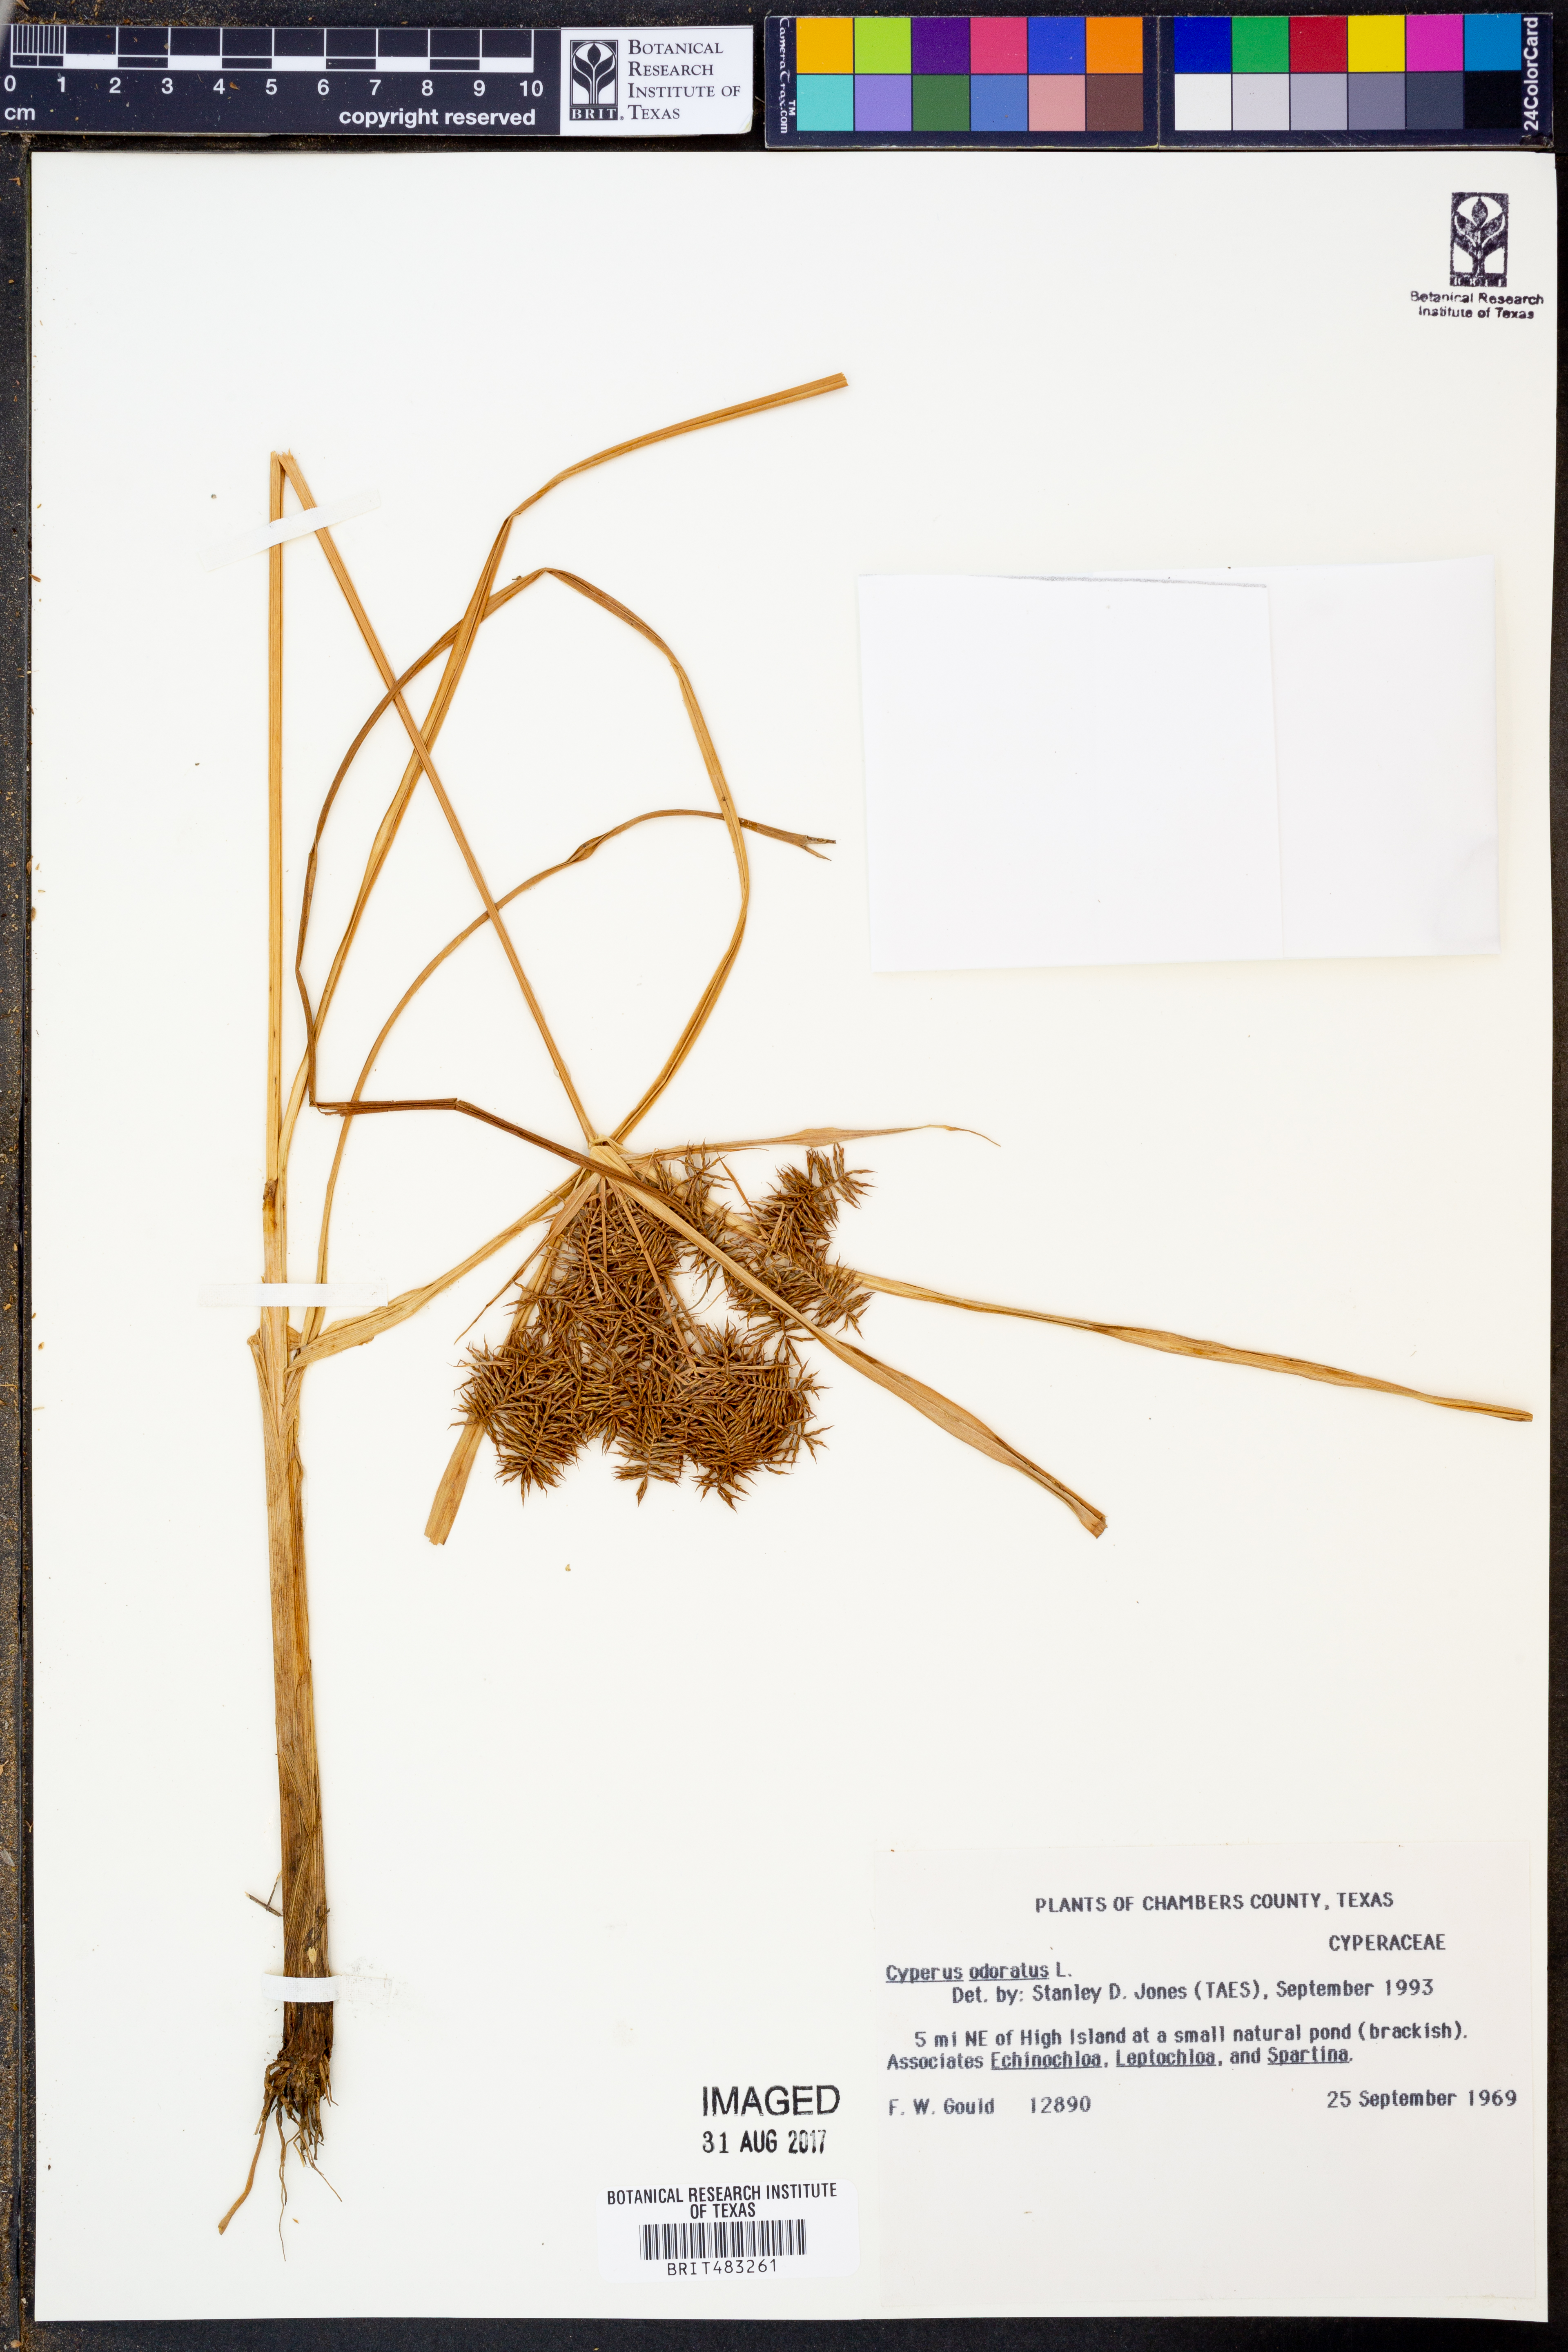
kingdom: Plantae
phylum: Tracheophyta
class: Liliopsida
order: Poales
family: Cyperaceae
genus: Cyperus
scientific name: Cyperus odoratus
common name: Fragrant flatsedge
